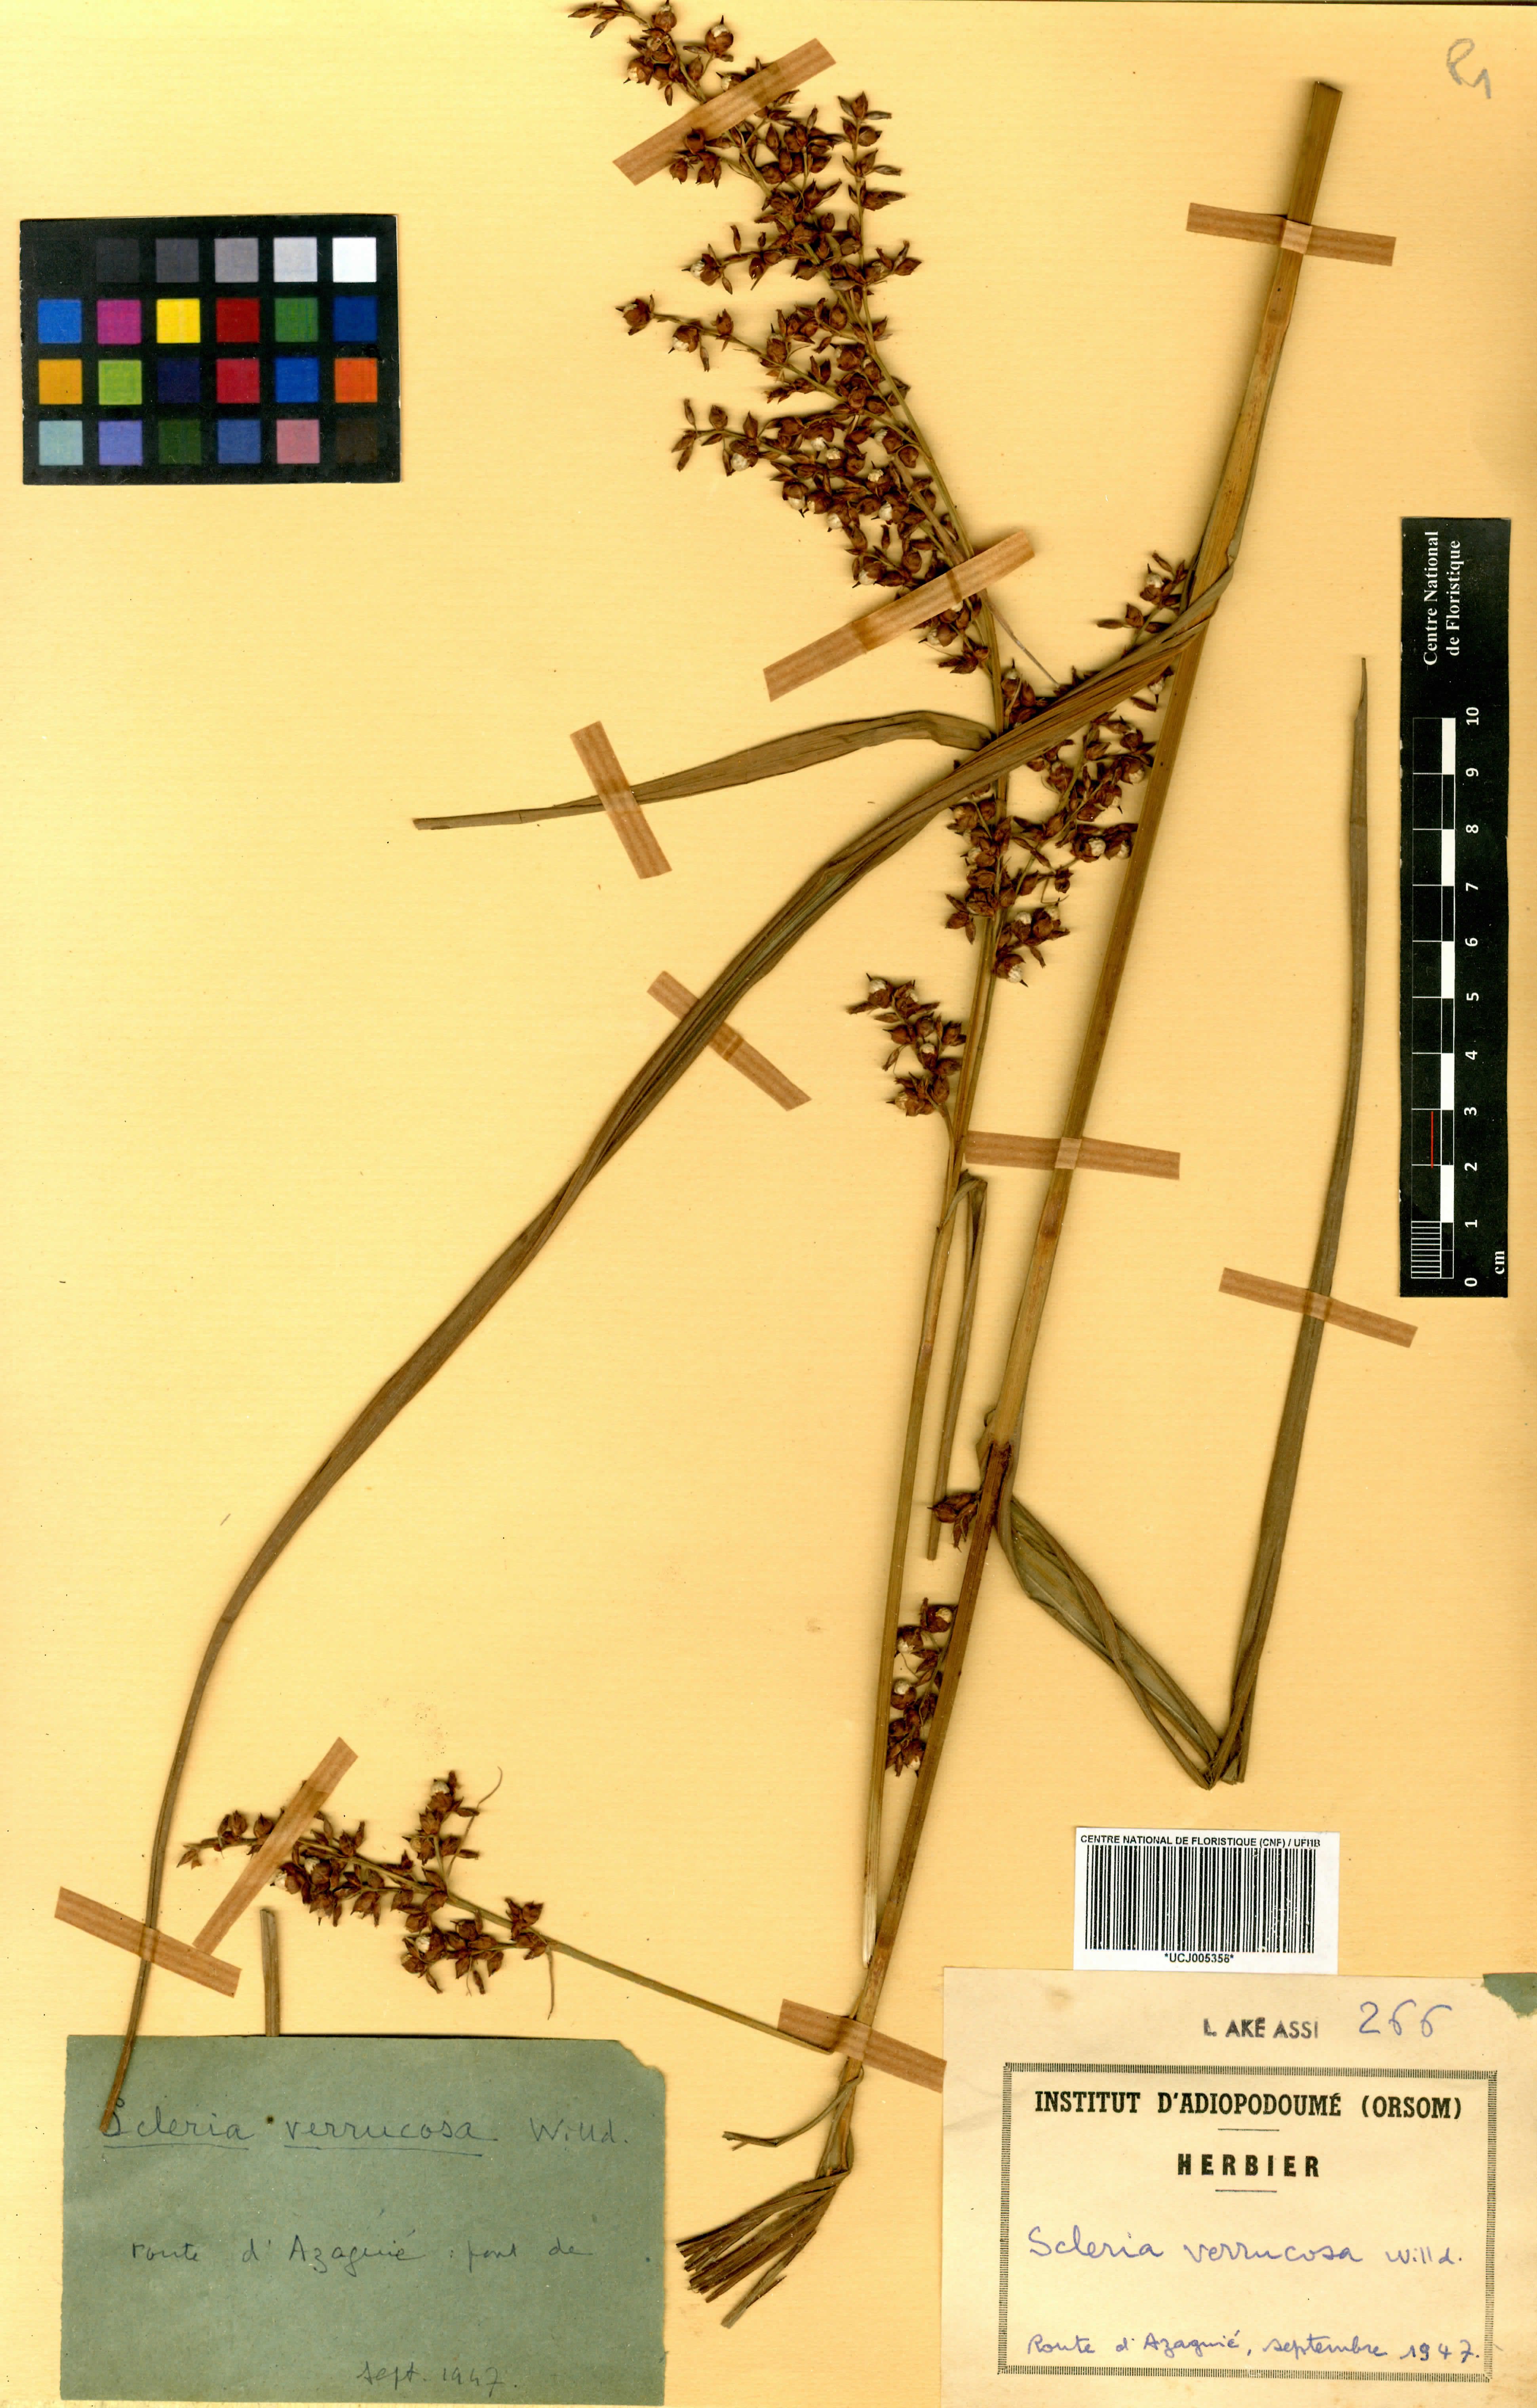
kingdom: Plantae
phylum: Tracheophyta
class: Liliopsida
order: Poales
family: Cyperaceae
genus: Scleria
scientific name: Scleria verrucosa
